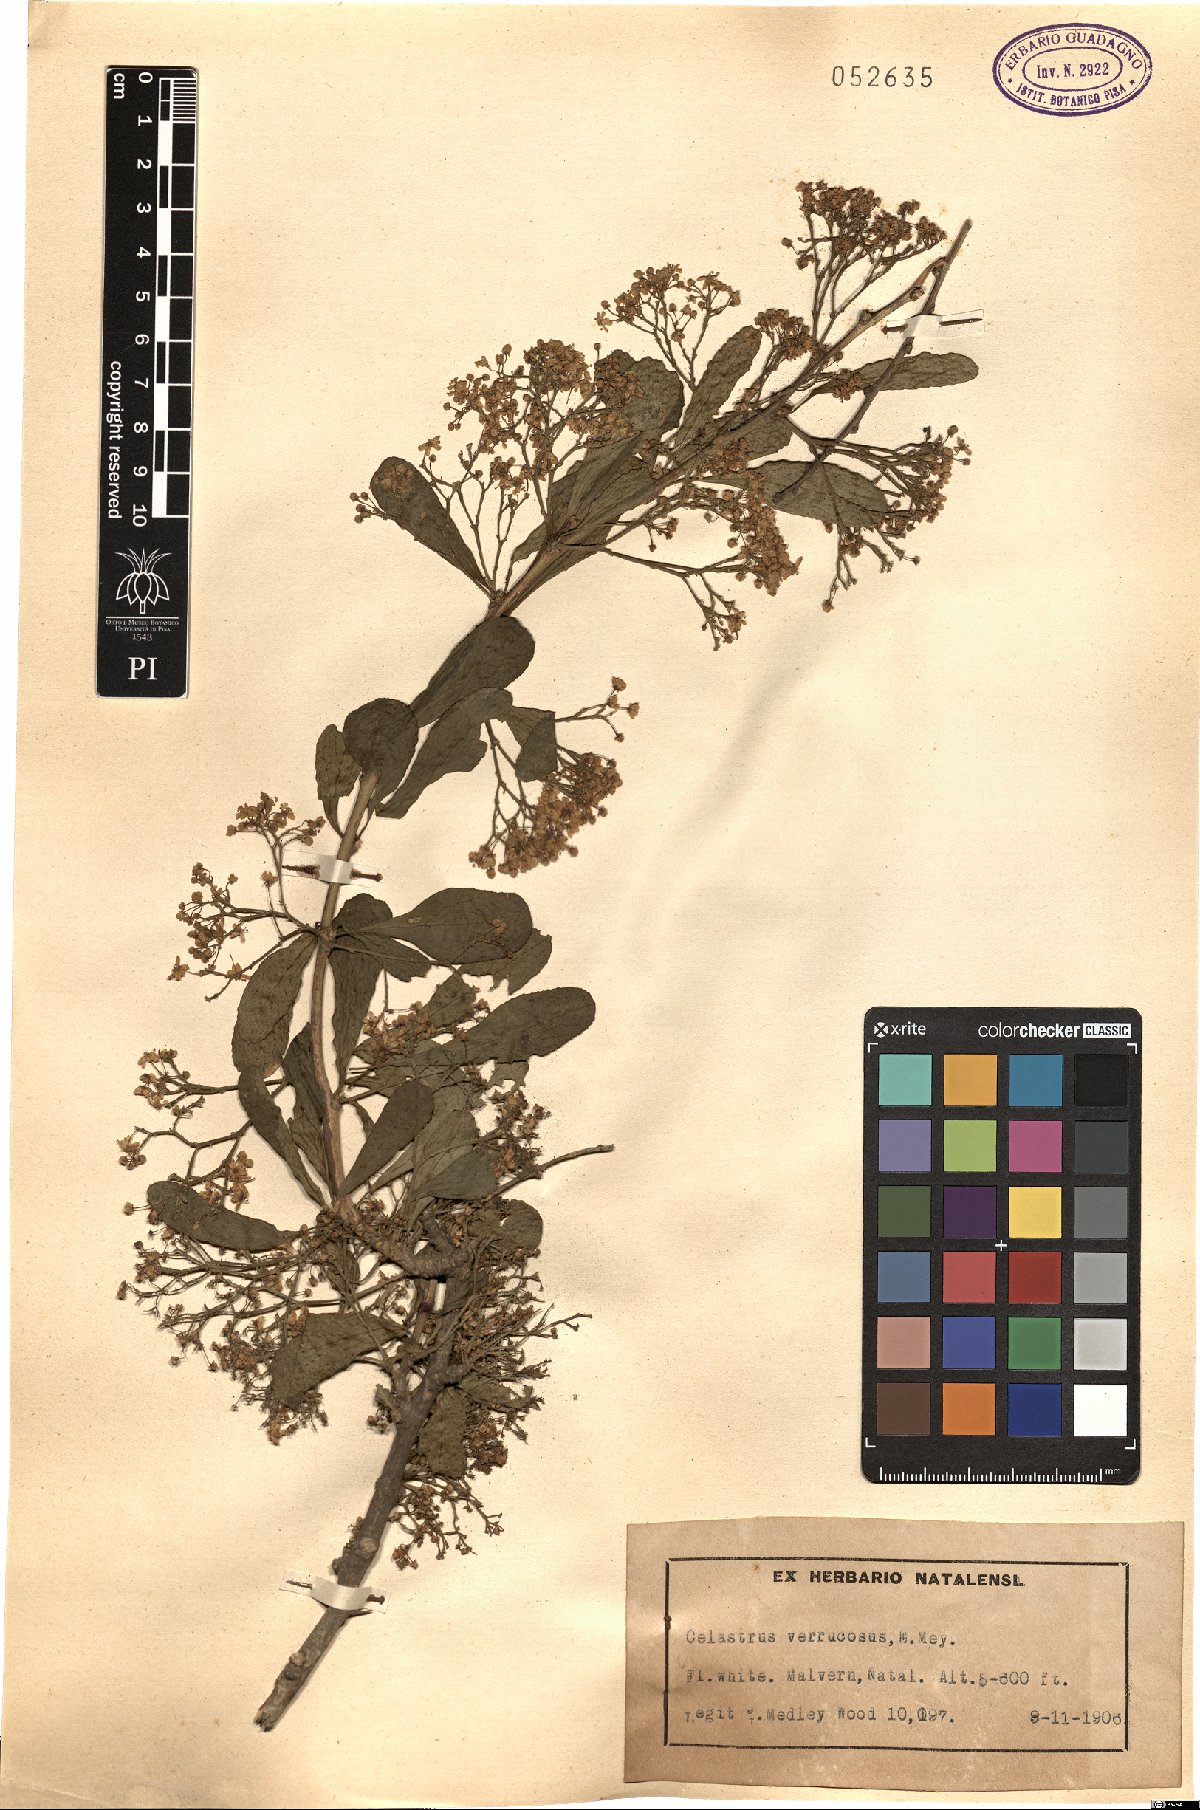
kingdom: Plantae
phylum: Tracheophyta
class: Magnoliopsida
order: Celastrales
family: Celastraceae
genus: Putterlickia
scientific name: Putterlickia verrucosa
